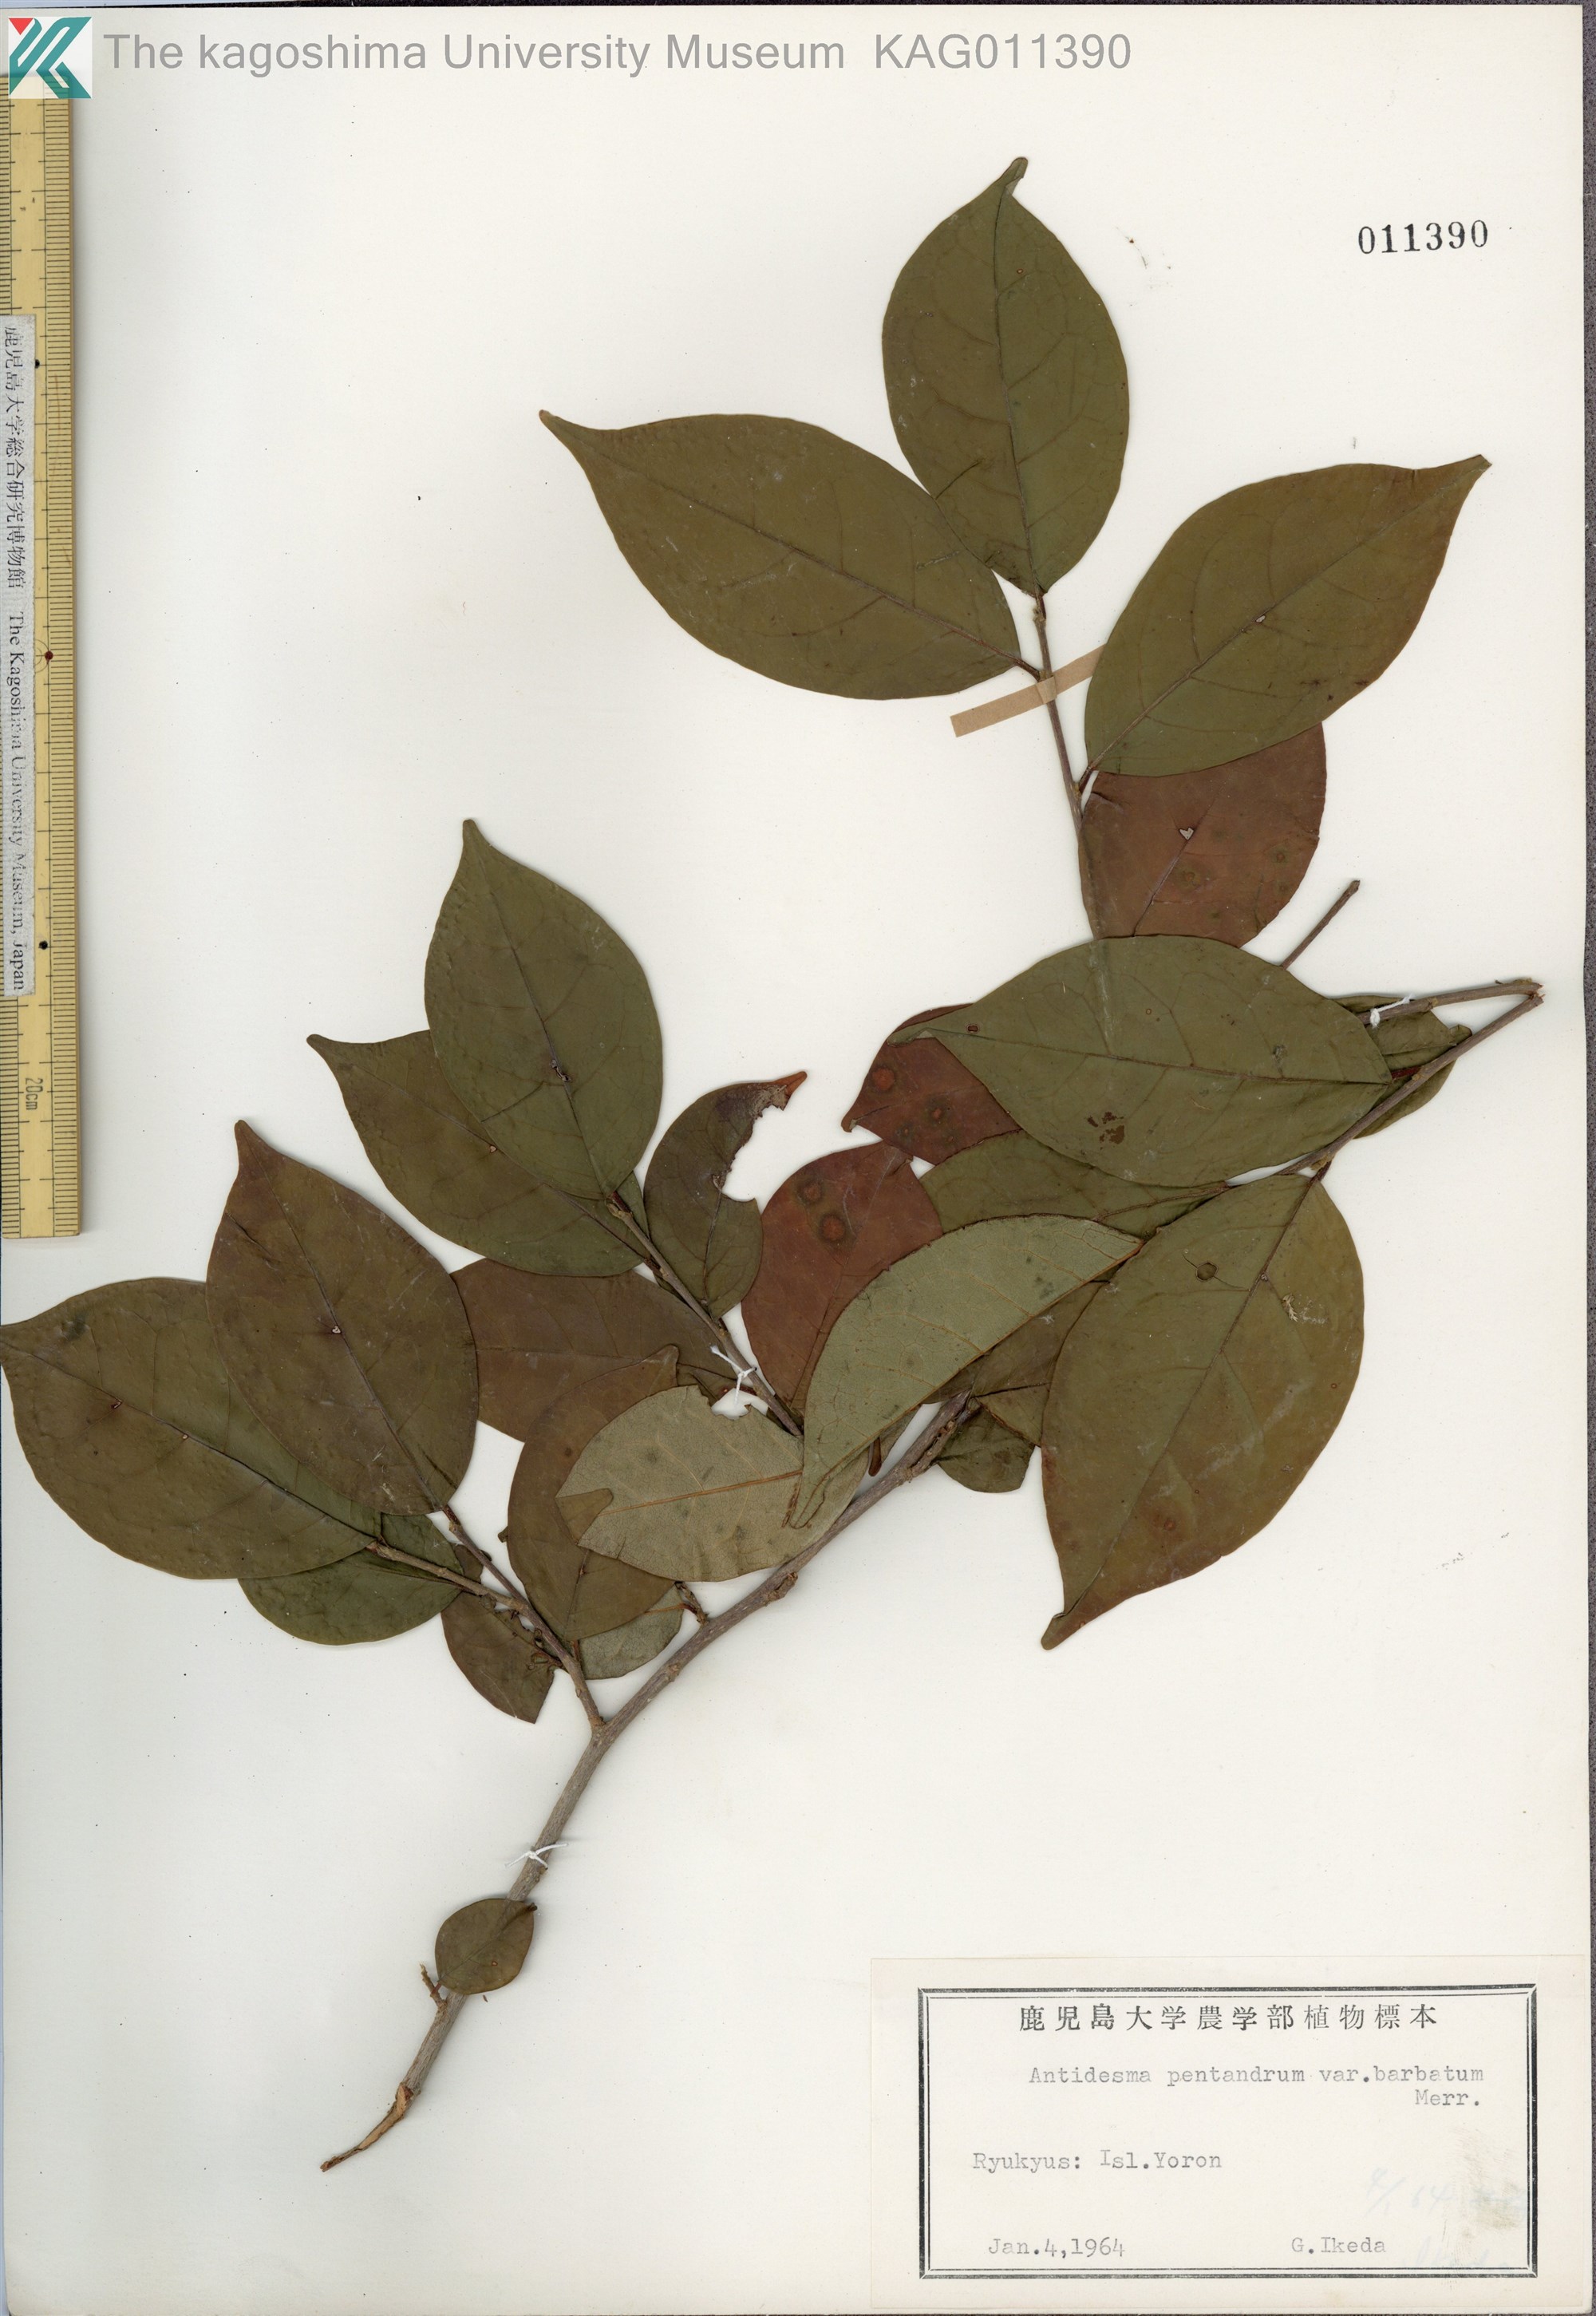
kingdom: Plantae
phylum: Tracheophyta
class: Magnoliopsida
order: Malpighiales
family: Phyllanthaceae
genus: Antidesma
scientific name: Antidesma montanum
